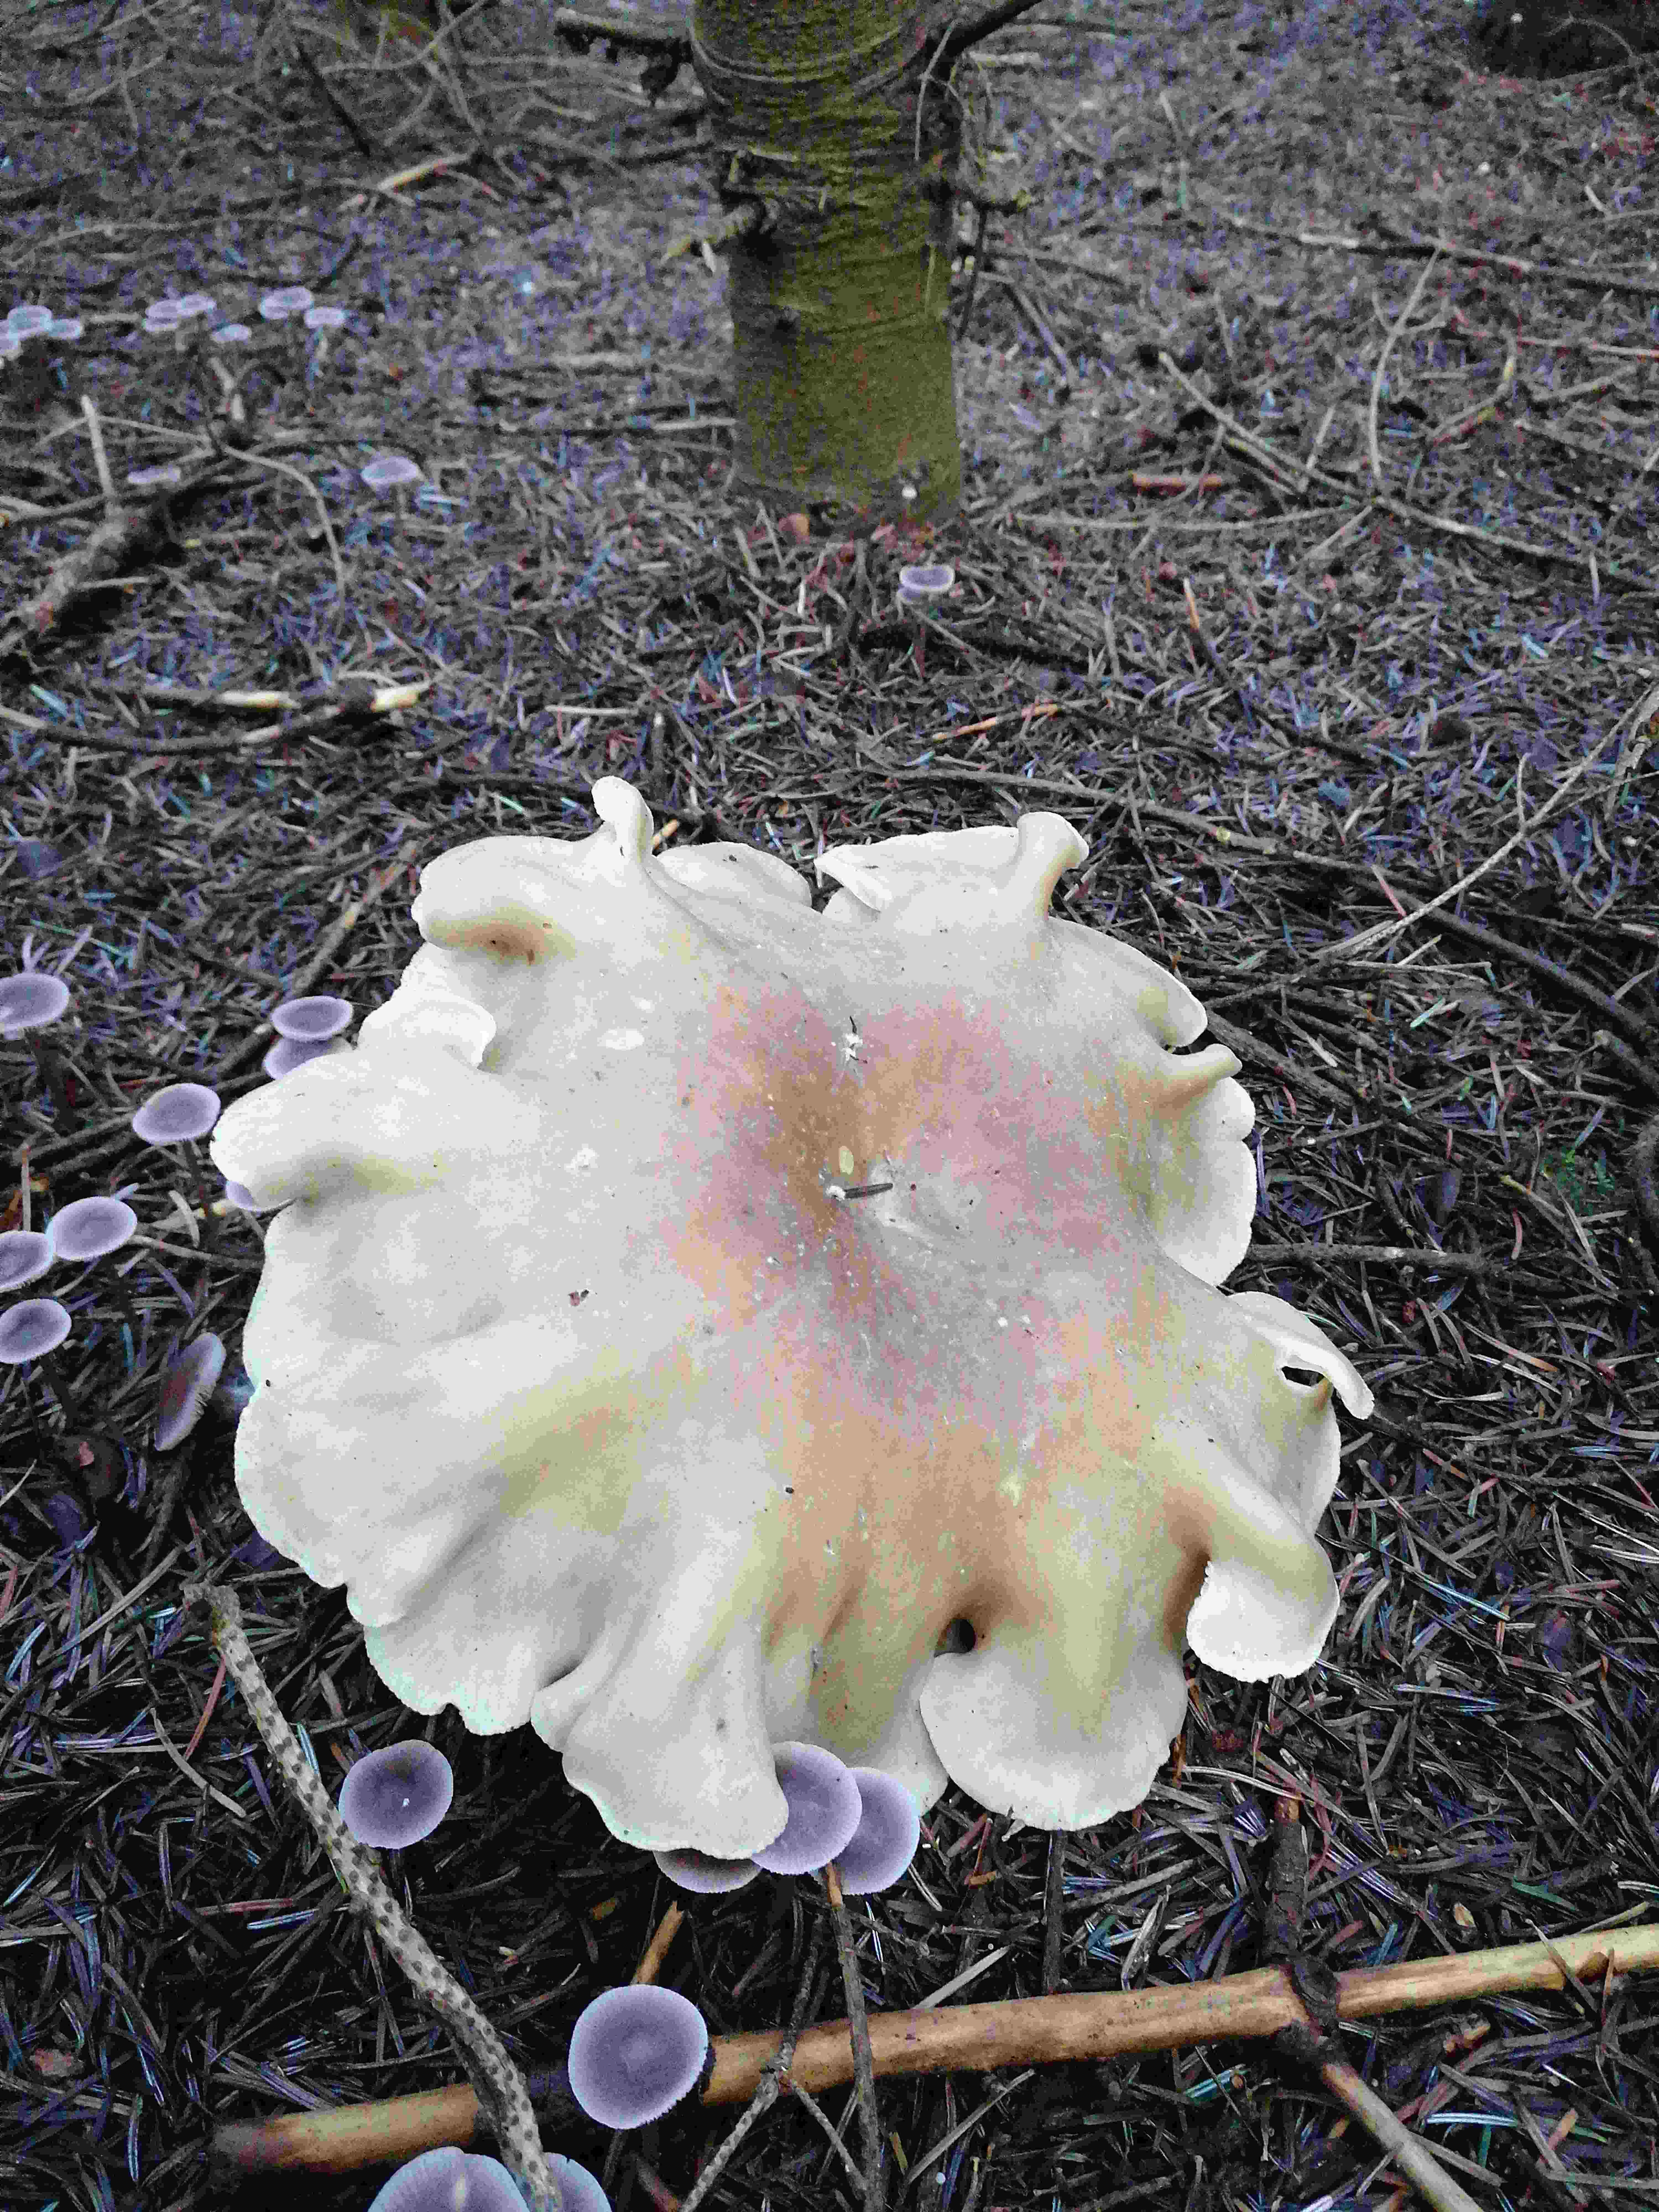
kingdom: Fungi
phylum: Basidiomycota
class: Agaricomycetes
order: Agaricales
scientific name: Agaricales
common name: champignonordenen
